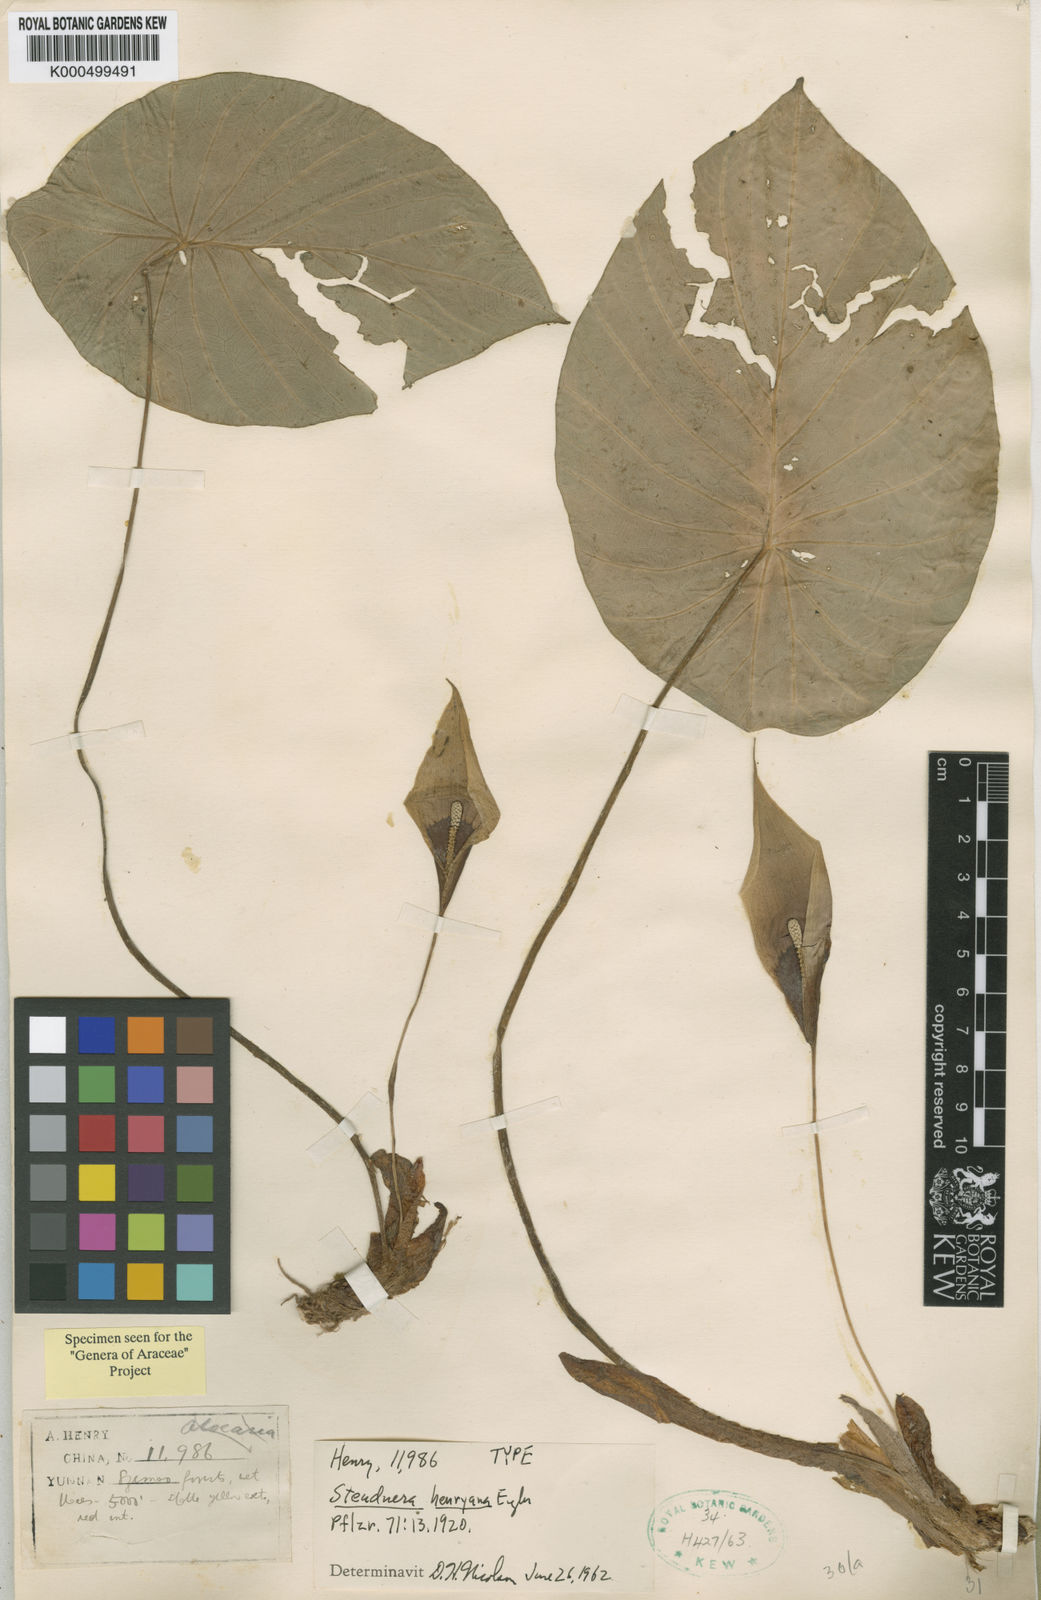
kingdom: Plantae
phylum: Tracheophyta
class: Liliopsida
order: Alismatales
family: Araceae
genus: Steudnera
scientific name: Steudnera henryana
